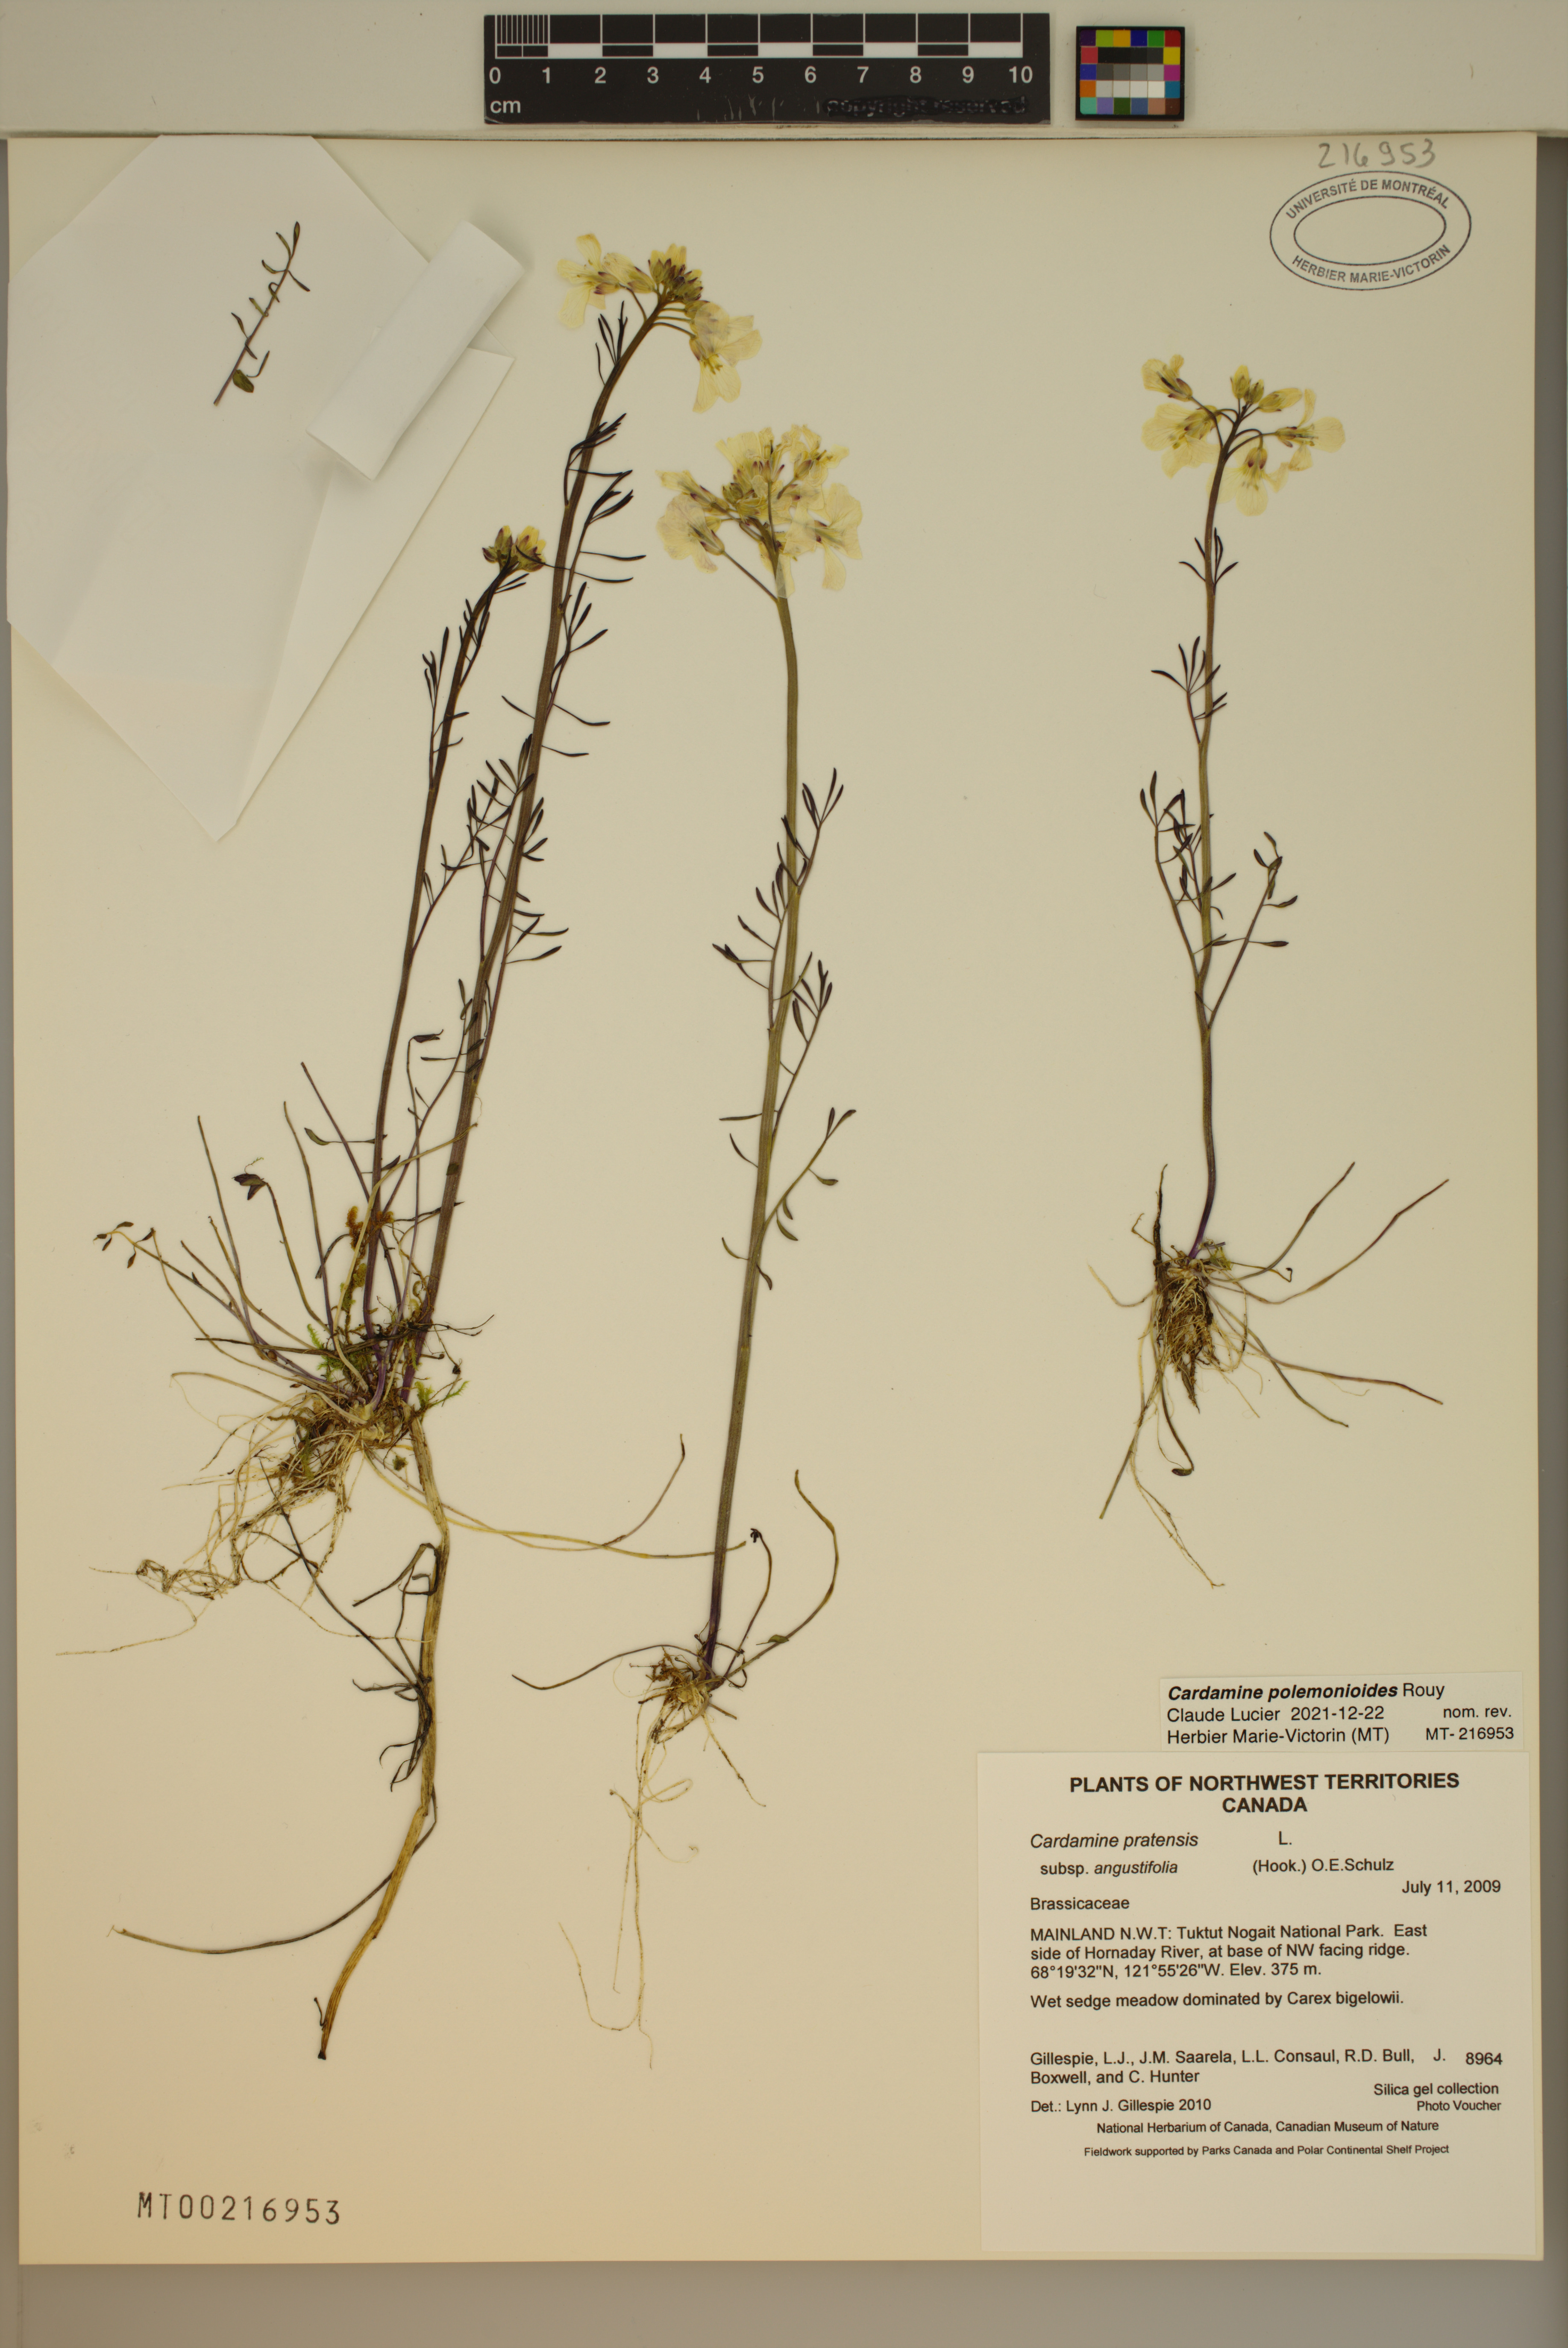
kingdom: Plantae
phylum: Tracheophyta
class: Magnoliopsida
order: Brassicales
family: Brassicaceae
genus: Cardamine
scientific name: Cardamine nymanii
